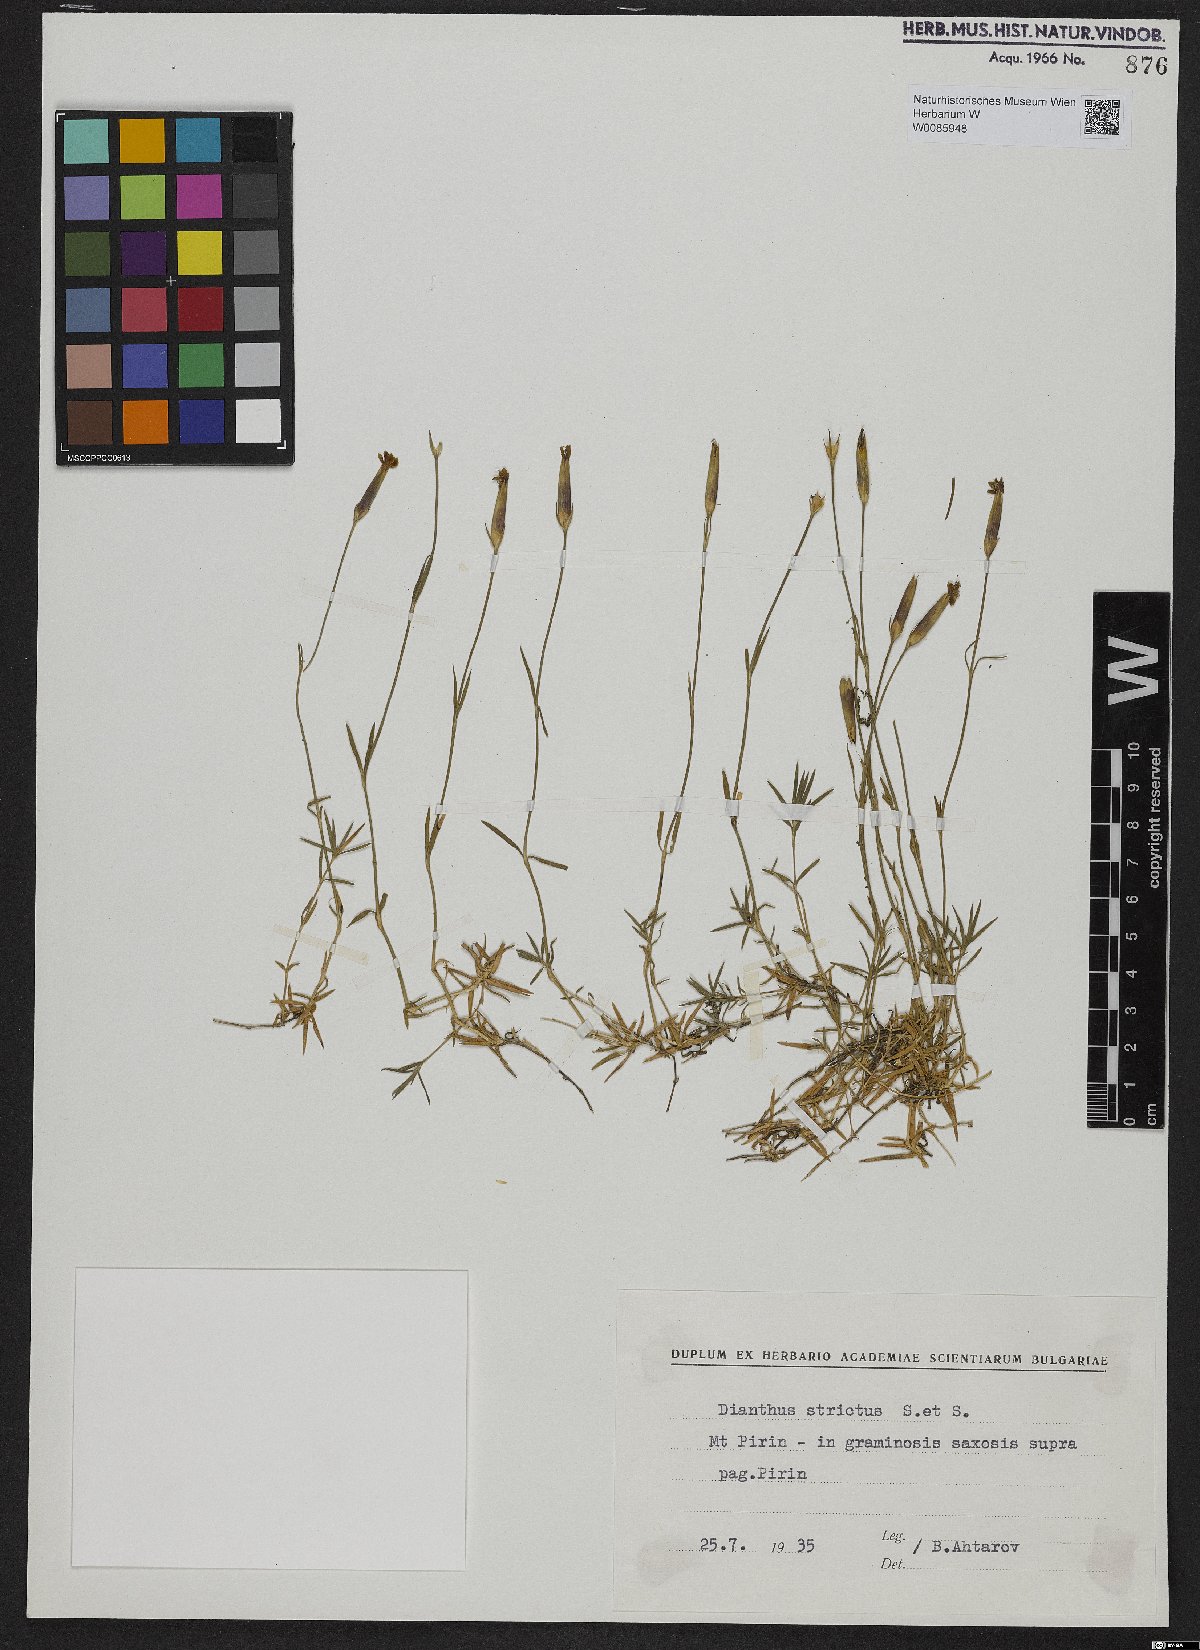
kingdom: Plantae
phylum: Tracheophyta
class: Magnoliopsida
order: Caryophyllales
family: Caryophyllaceae
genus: Dianthus
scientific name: Dianthus petraeus
